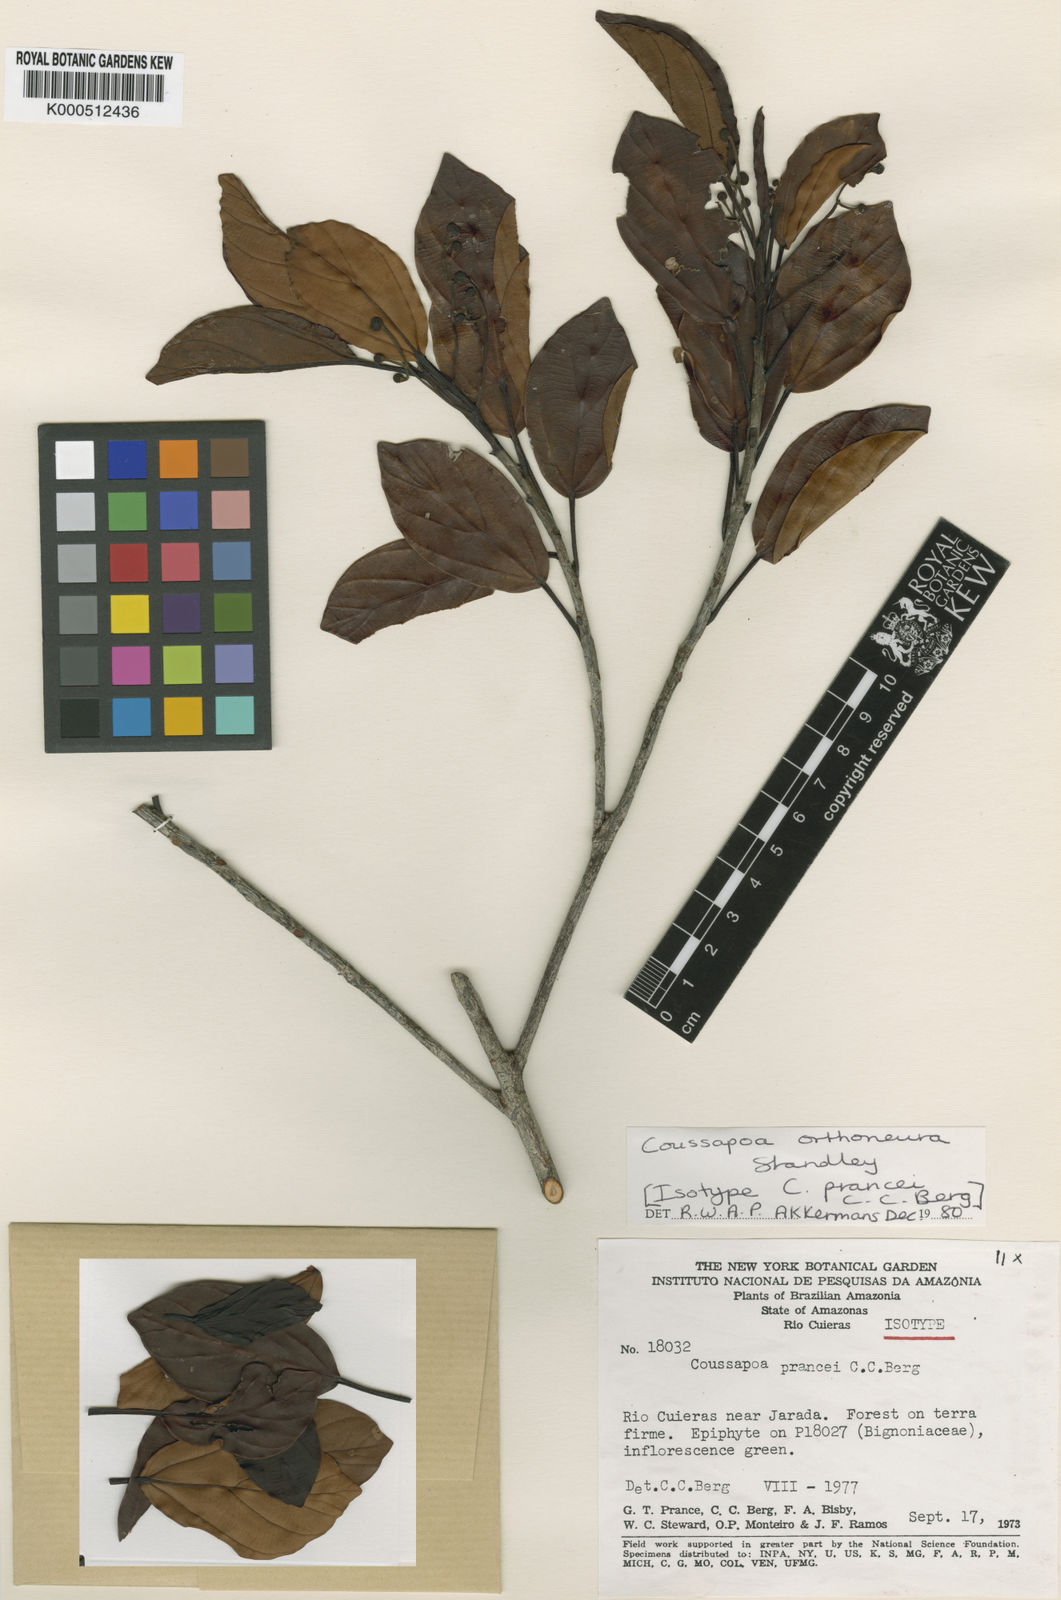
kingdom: Plantae
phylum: Tracheophyta
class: Magnoliopsida
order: Rosales
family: Urticaceae
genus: Coussapoa
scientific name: Coussapoa orthoneura
